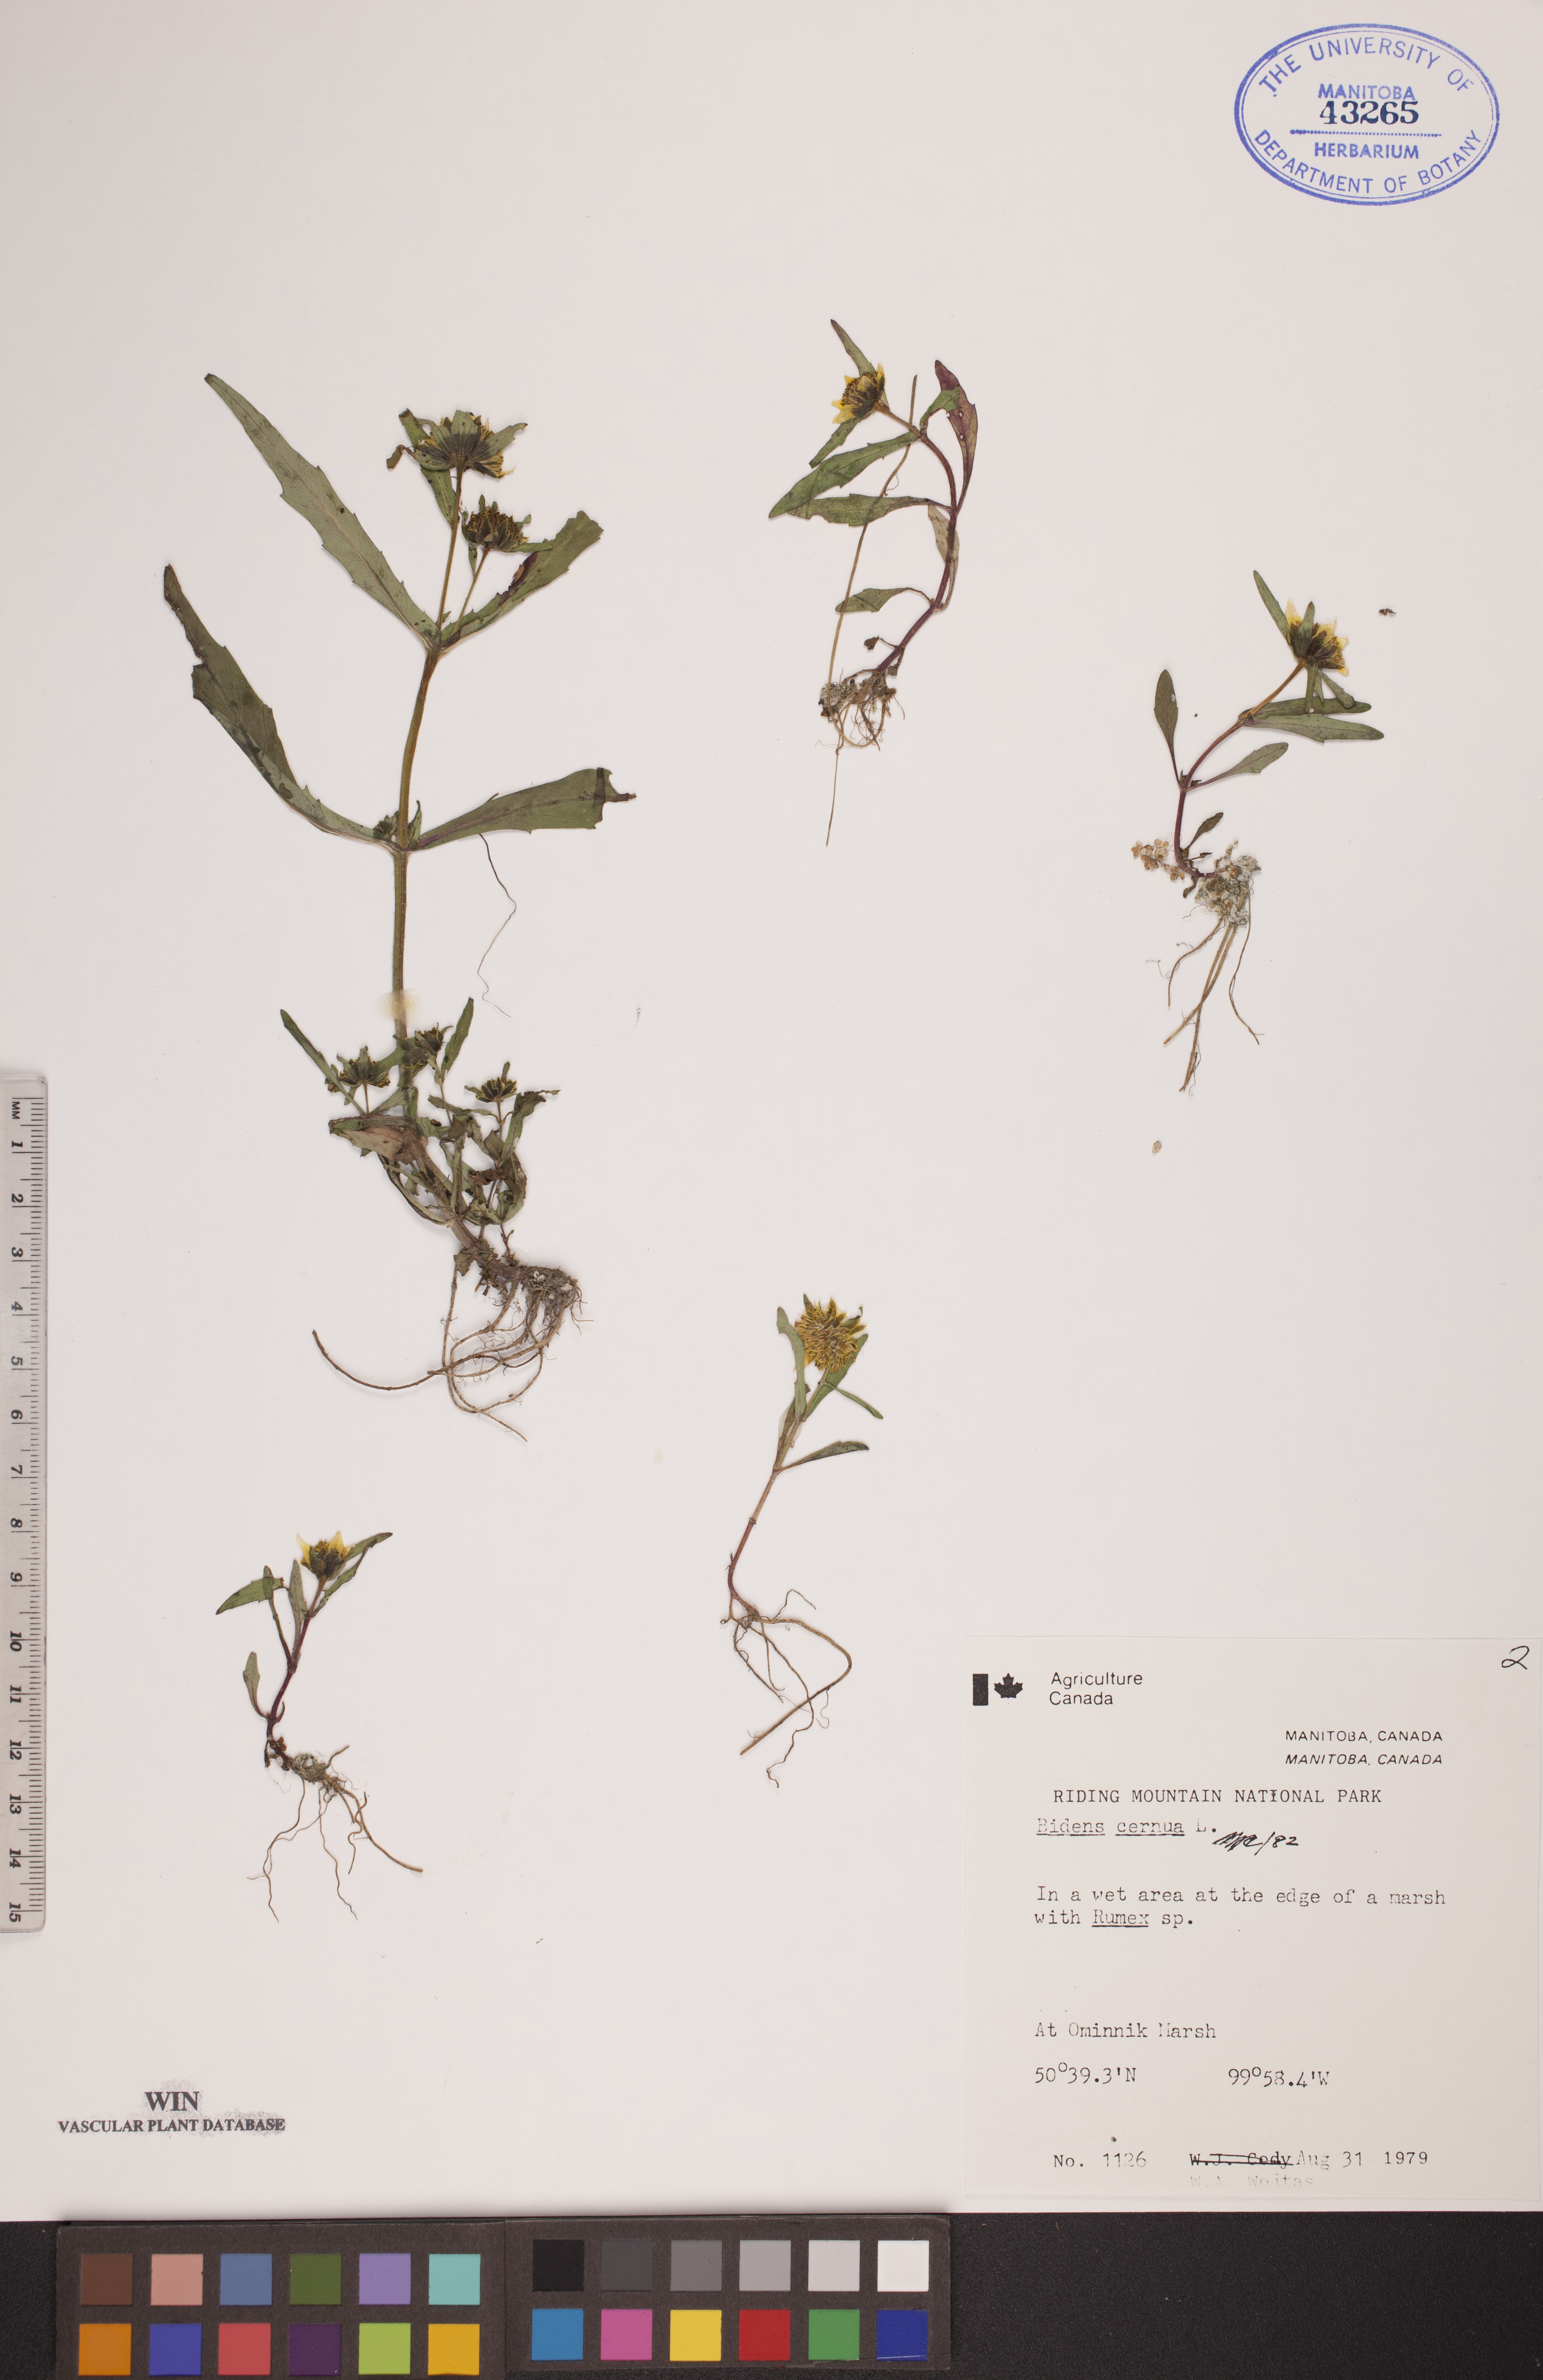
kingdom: Plantae
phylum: Tracheophyta
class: Magnoliopsida
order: Asterales
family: Asteraceae
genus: Bidens
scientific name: Bidens cernua
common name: Nodding bur-marigold
